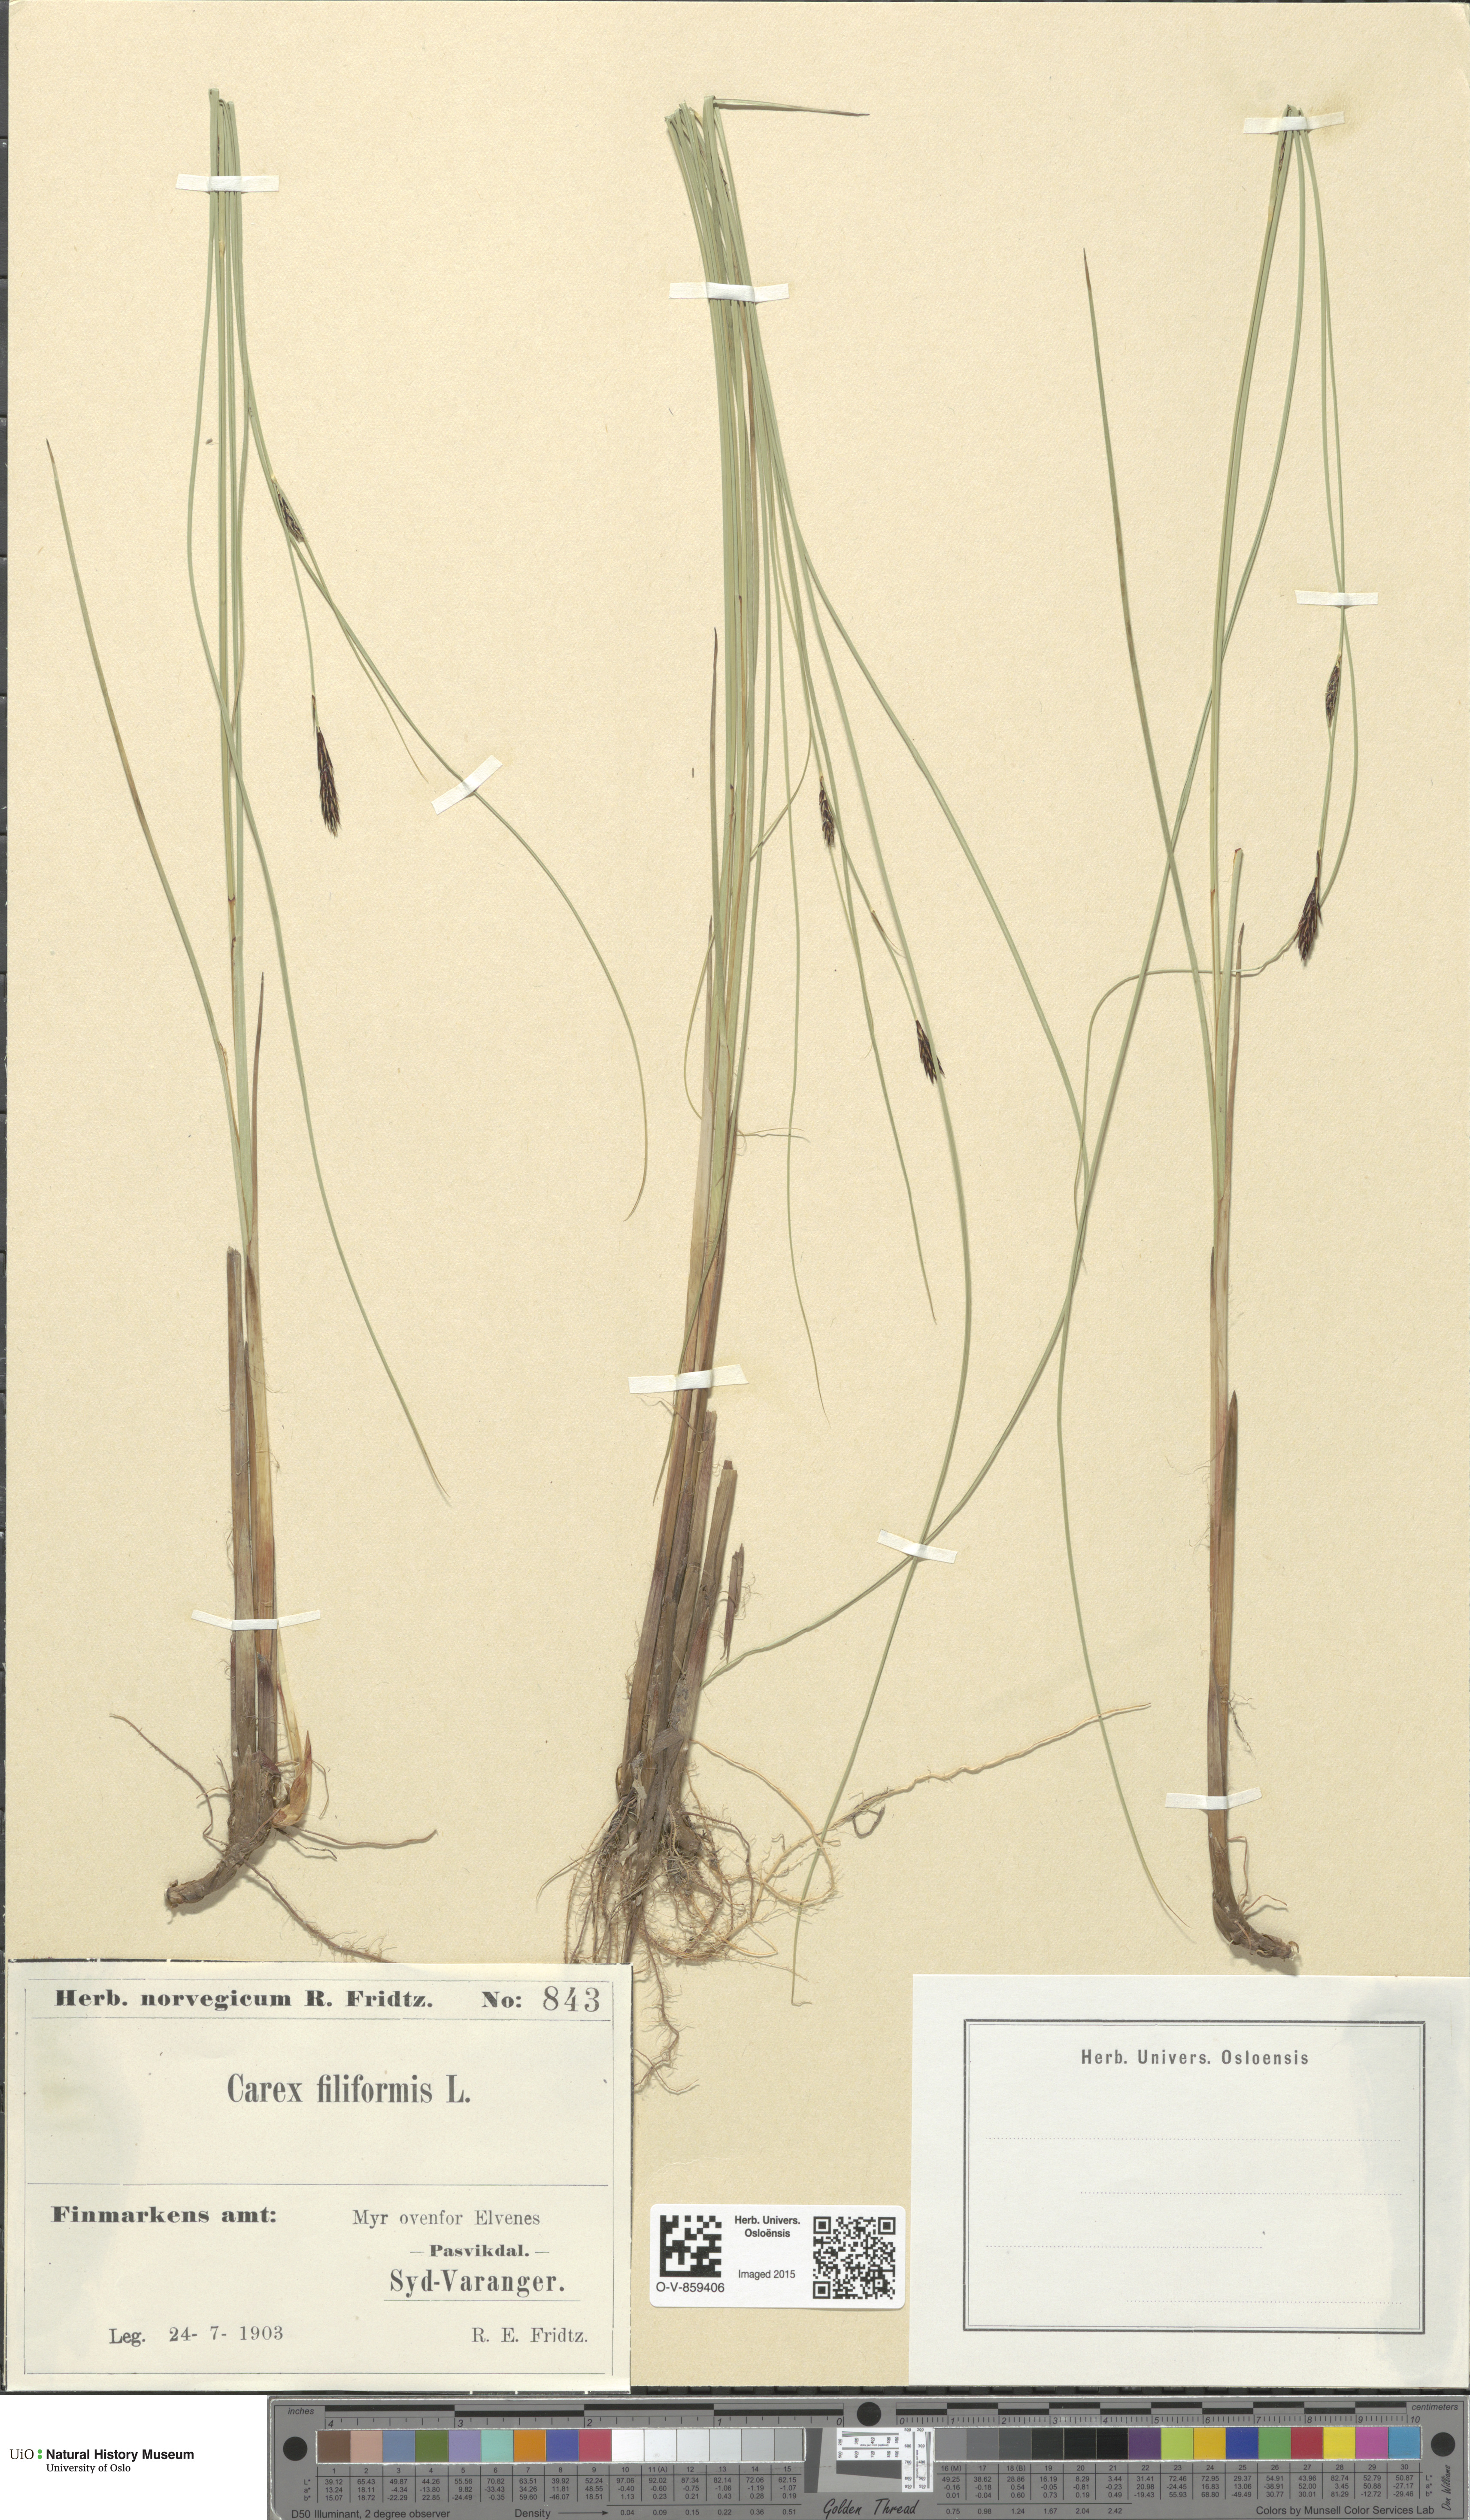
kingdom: Plantae
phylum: Tracheophyta
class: Liliopsida
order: Poales
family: Cyperaceae
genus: Carex
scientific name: Carex lasiocarpa
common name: Slender sedge
